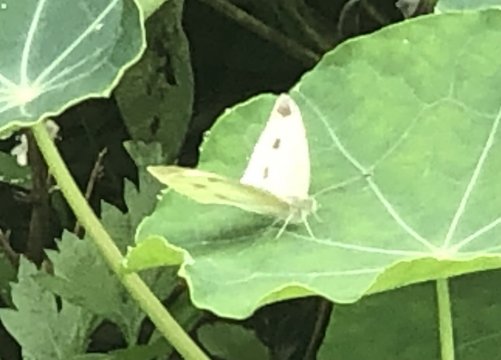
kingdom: Animalia
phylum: Arthropoda
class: Insecta
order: Lepidoptera
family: Pieridae
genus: Pieris
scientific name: Pieris rapae
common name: Cabbage White
